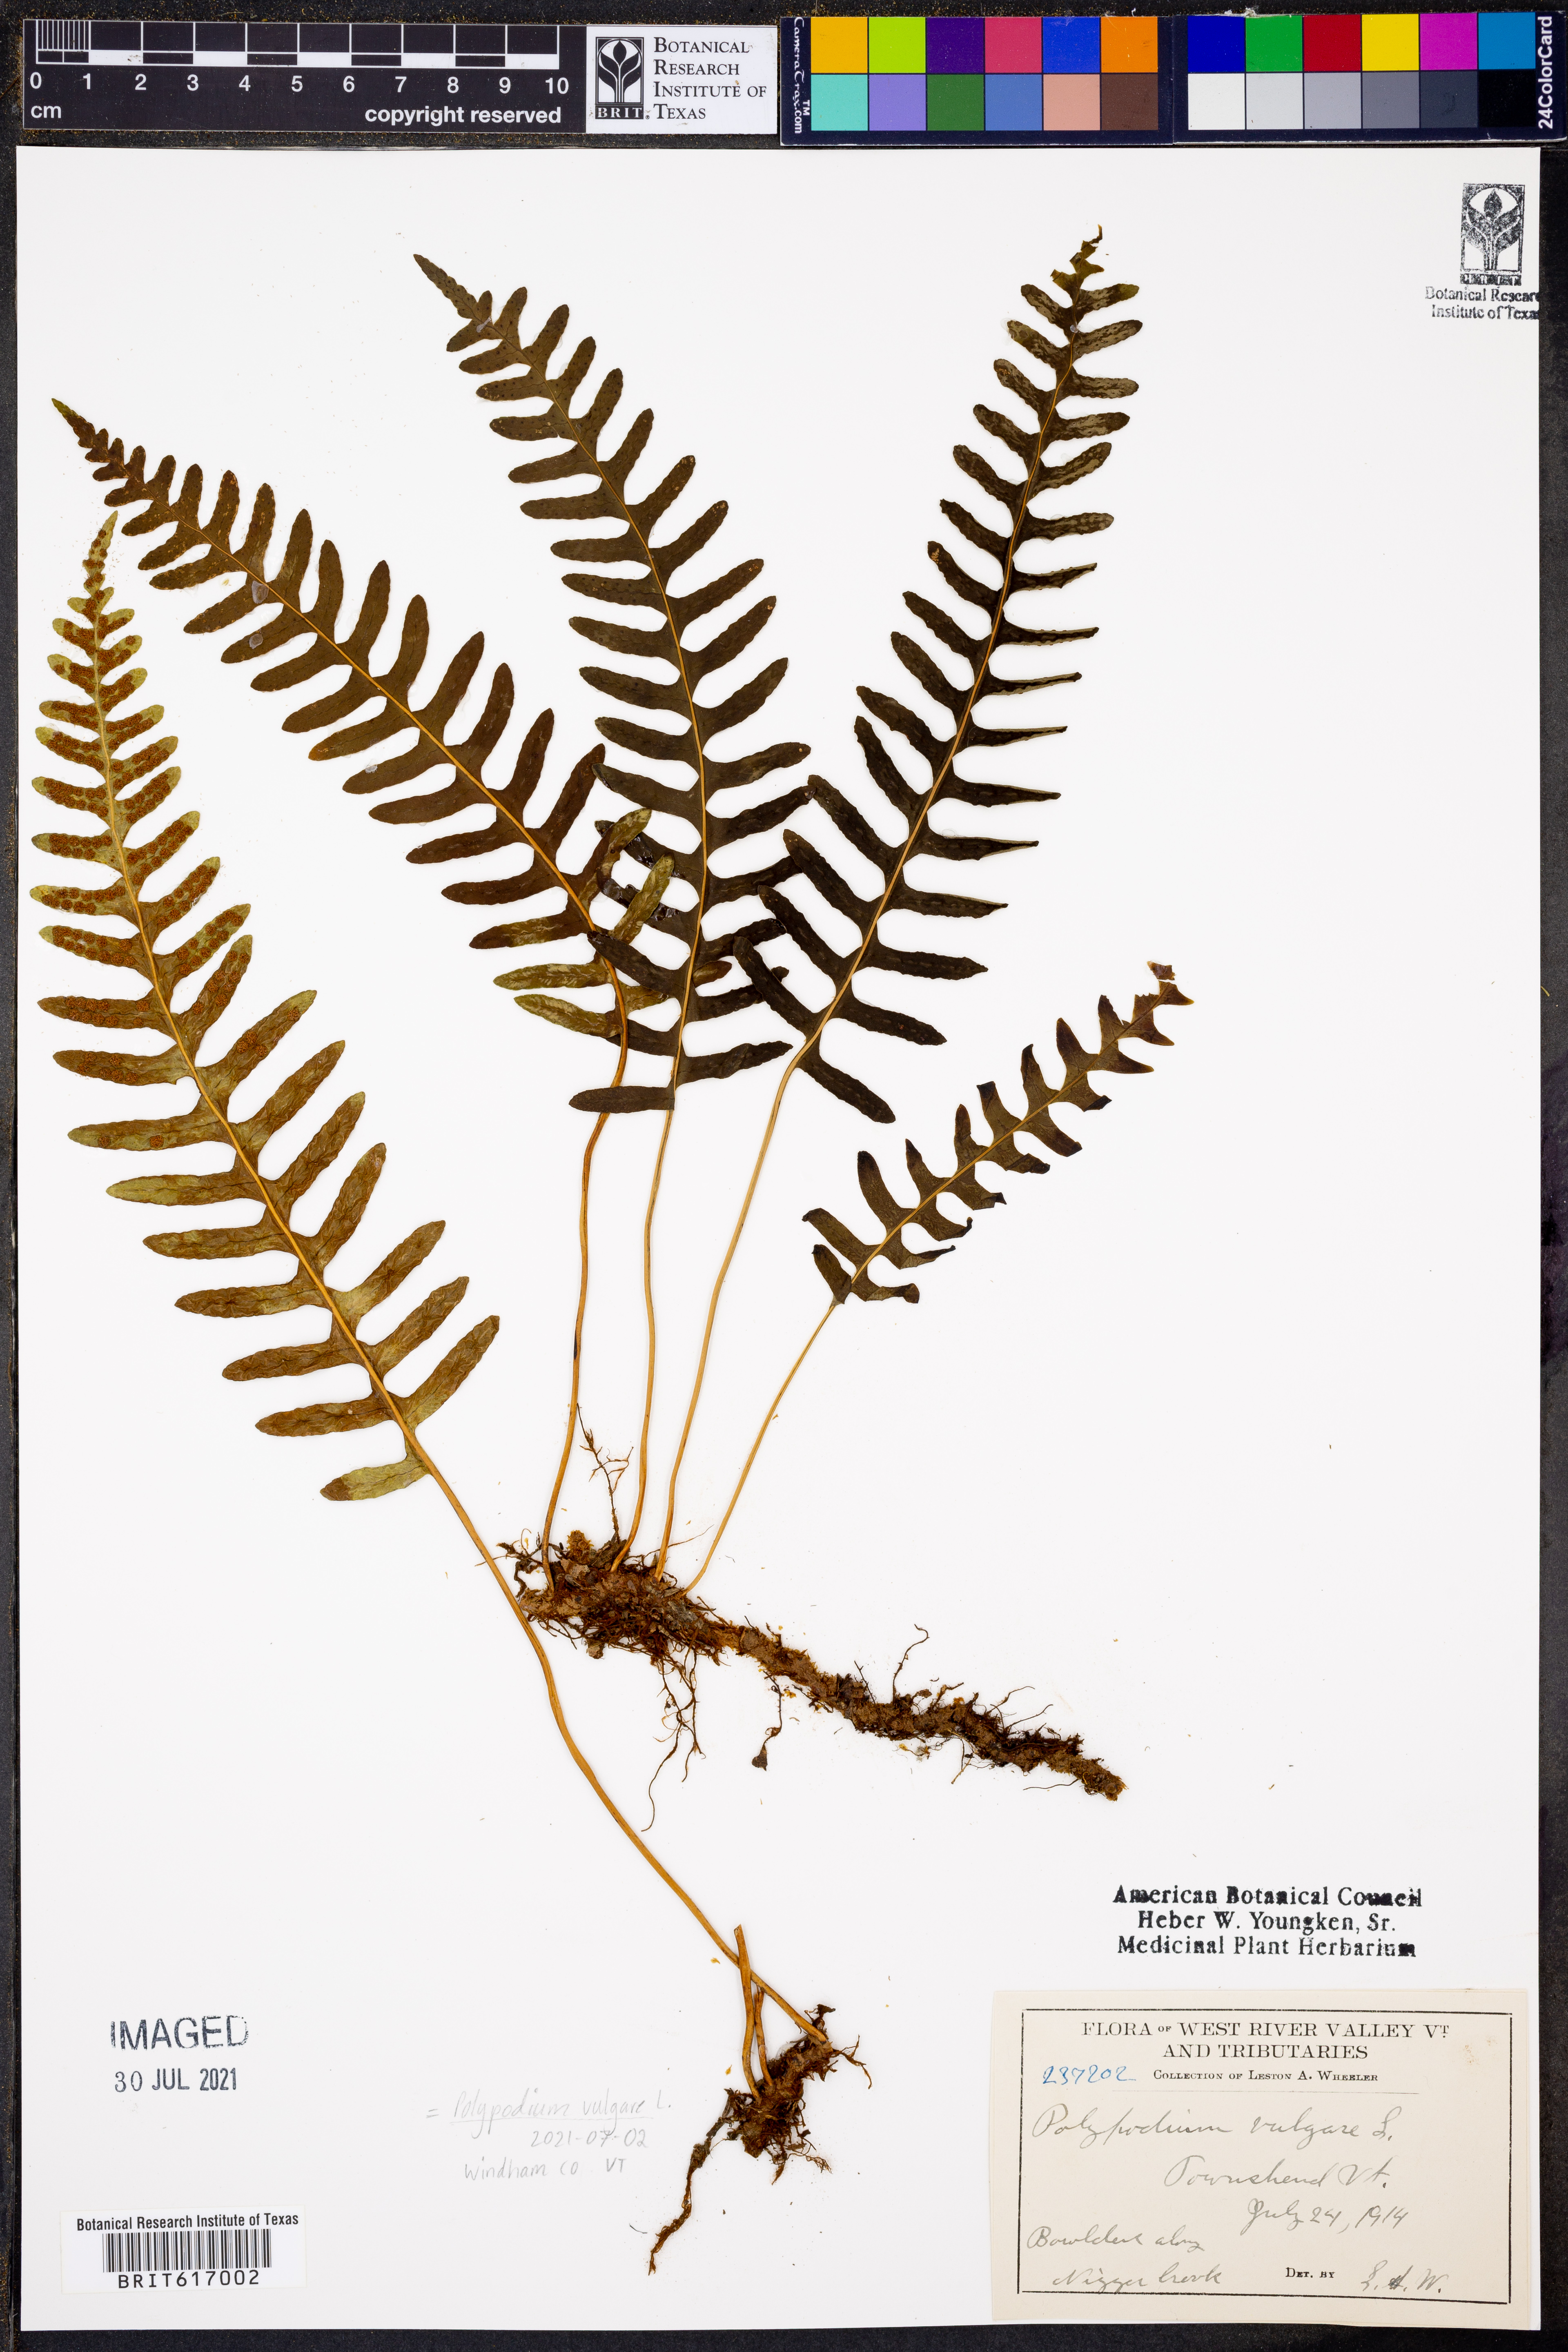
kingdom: Plantae
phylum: Tracheophyta
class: Polypodiopsida
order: Polypodiales
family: Polypodiaceae
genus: Polypodium
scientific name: Polypodium vulgare
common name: Common polypody
